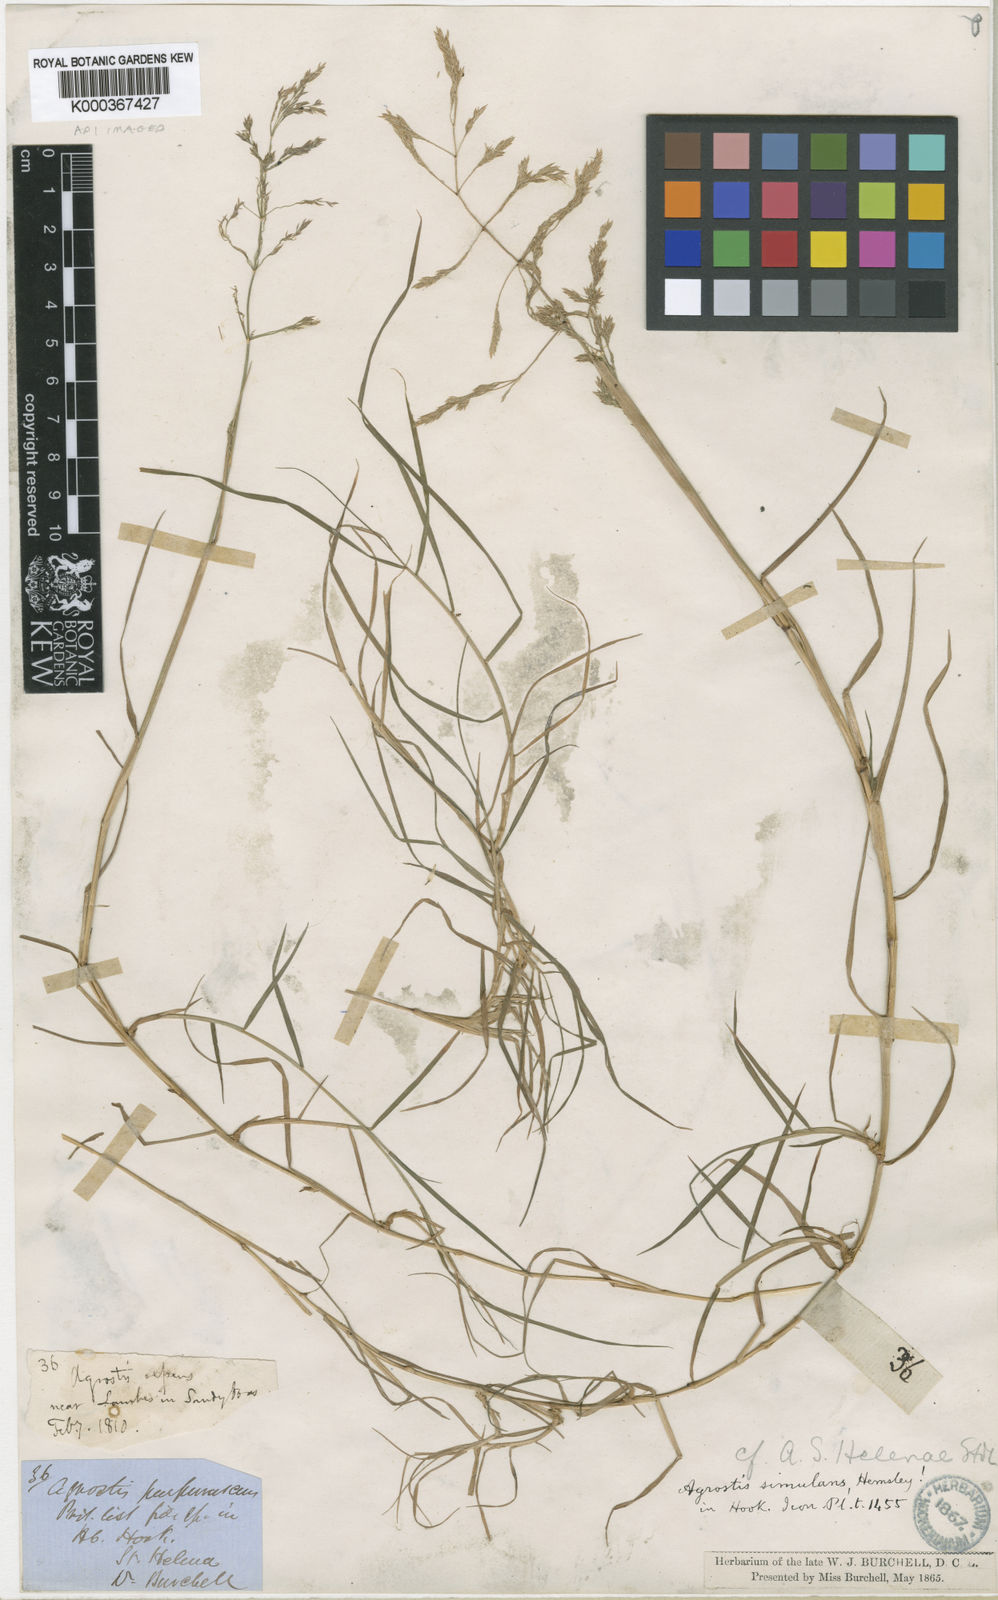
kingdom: Plantae
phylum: Tracheophyta
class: Liliopsida
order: Poales
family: Poaceae
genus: Agrostis
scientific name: Agrostis capillaris
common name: Colonial bentgrass
